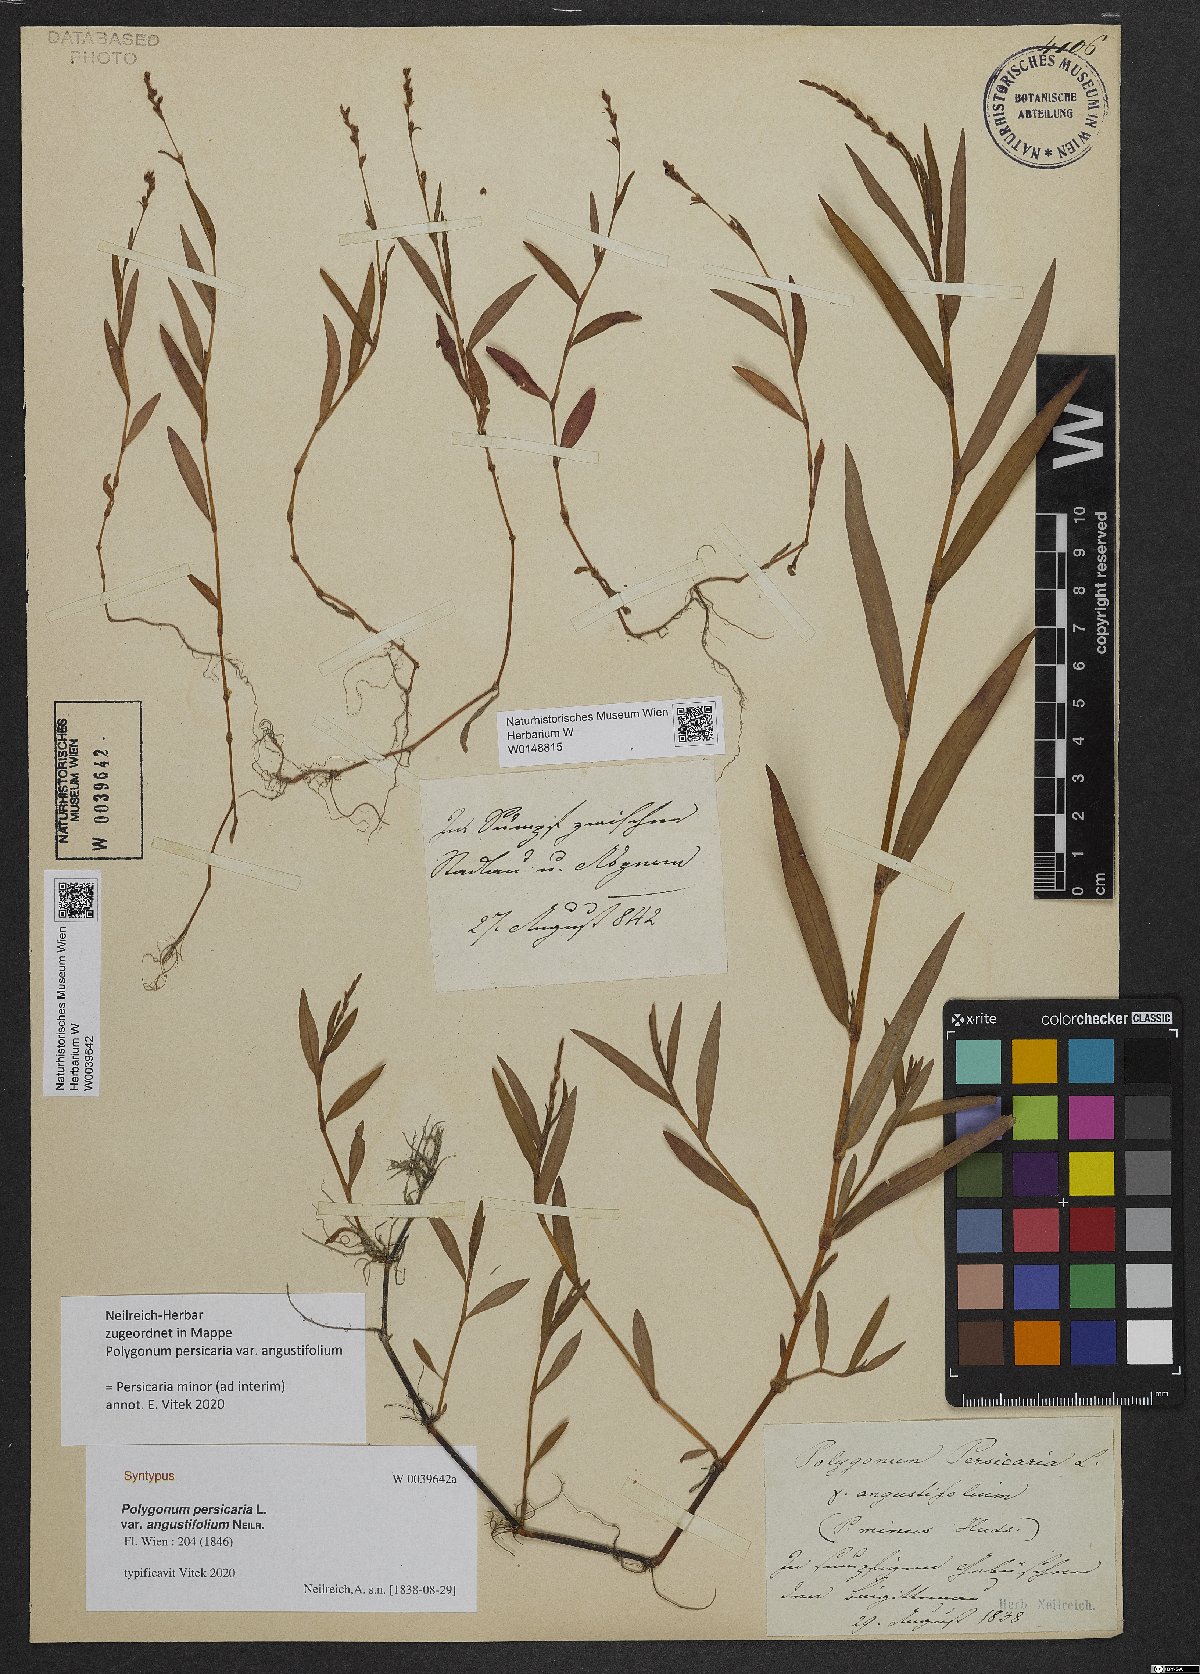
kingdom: Plantae
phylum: Tracheophyta
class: Magnoliopsida
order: Caryophyllales
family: Polygonaceae
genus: Persicaria
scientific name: Persicaria
